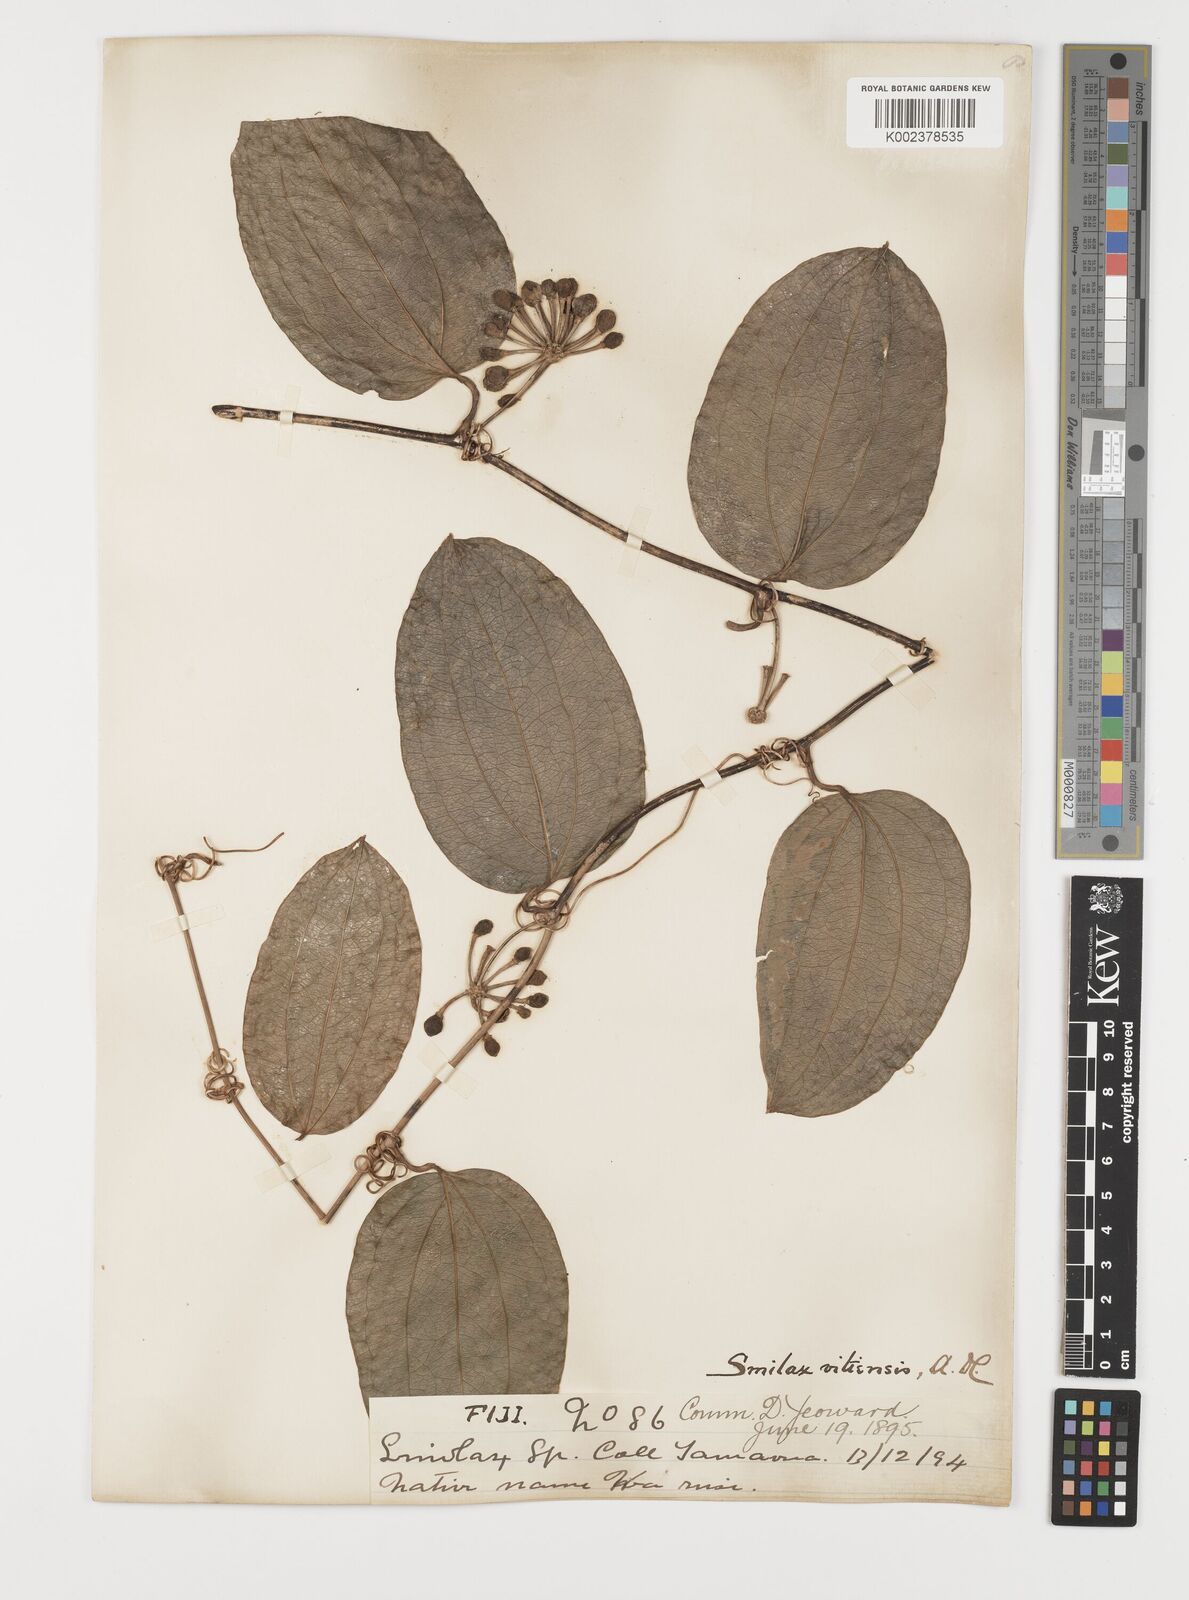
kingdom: Plantae
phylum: Tracheophyta
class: Liliopsida
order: Liliales
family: Smilacaceae
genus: Smilax
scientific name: Smilax vitiensis
